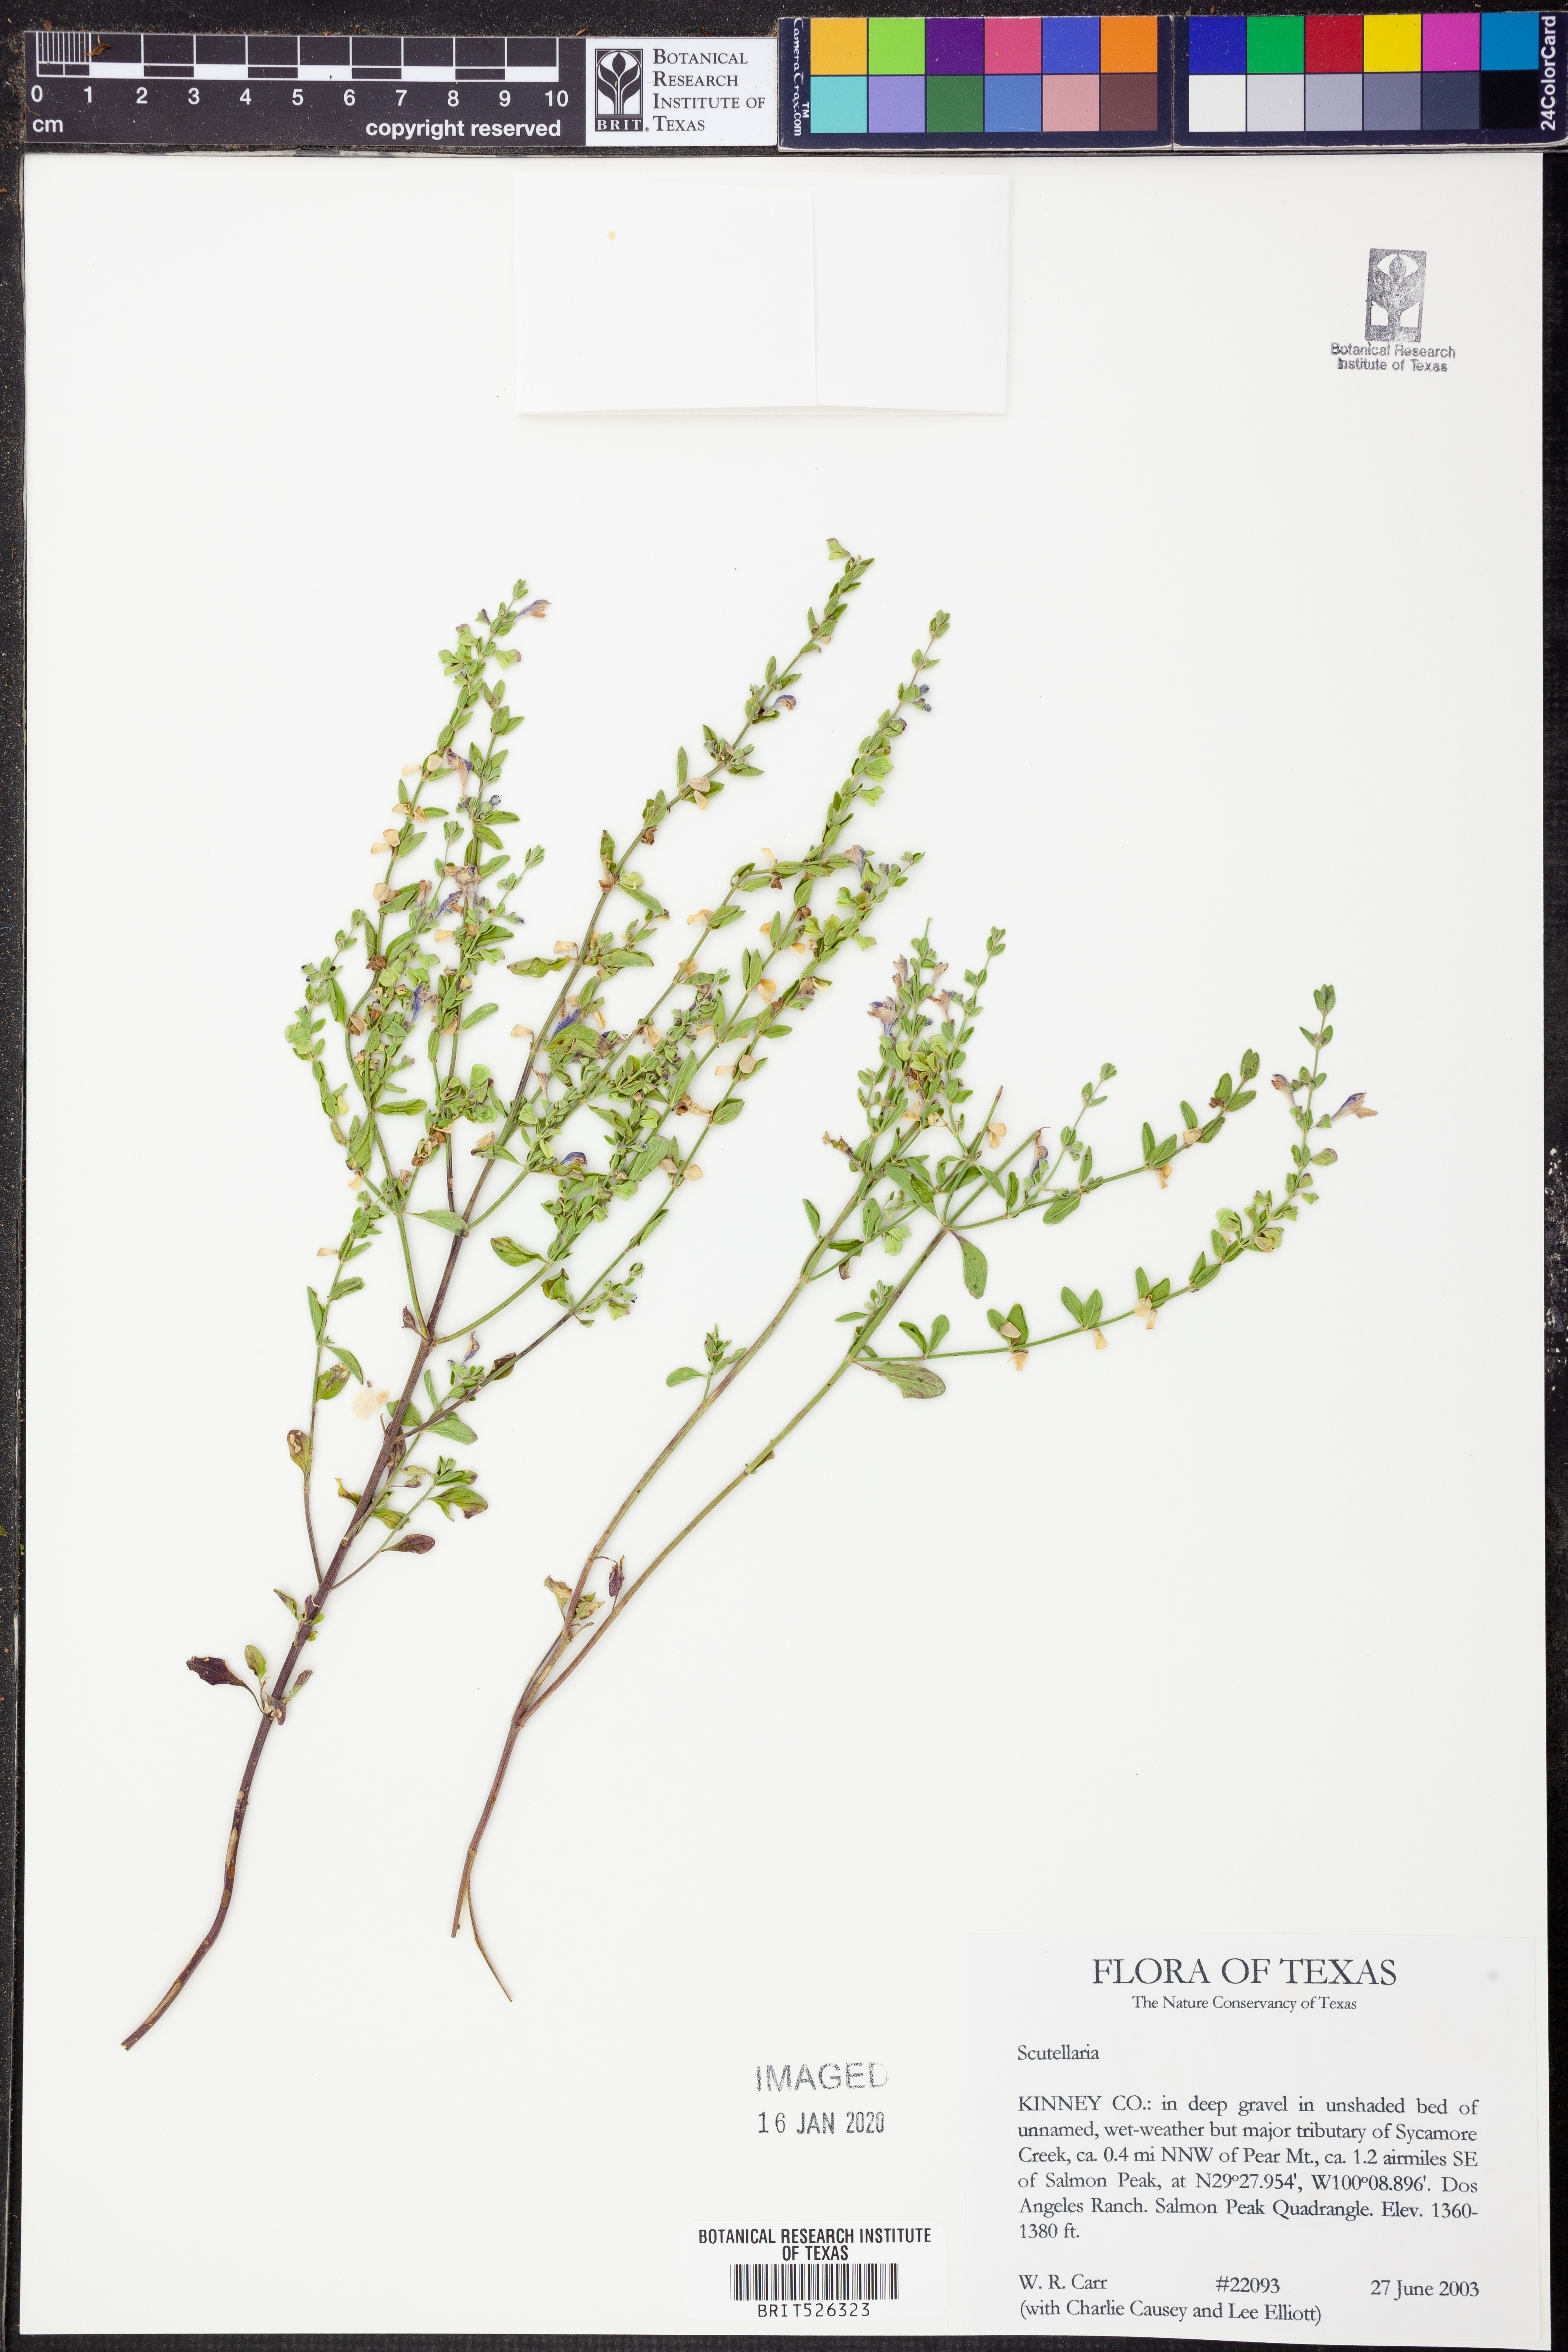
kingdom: Plantae
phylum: Tracheophyta
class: Magnoliopsida
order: Lamiales
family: Lamiaceae
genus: Scutellaria
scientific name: Scutellaria
